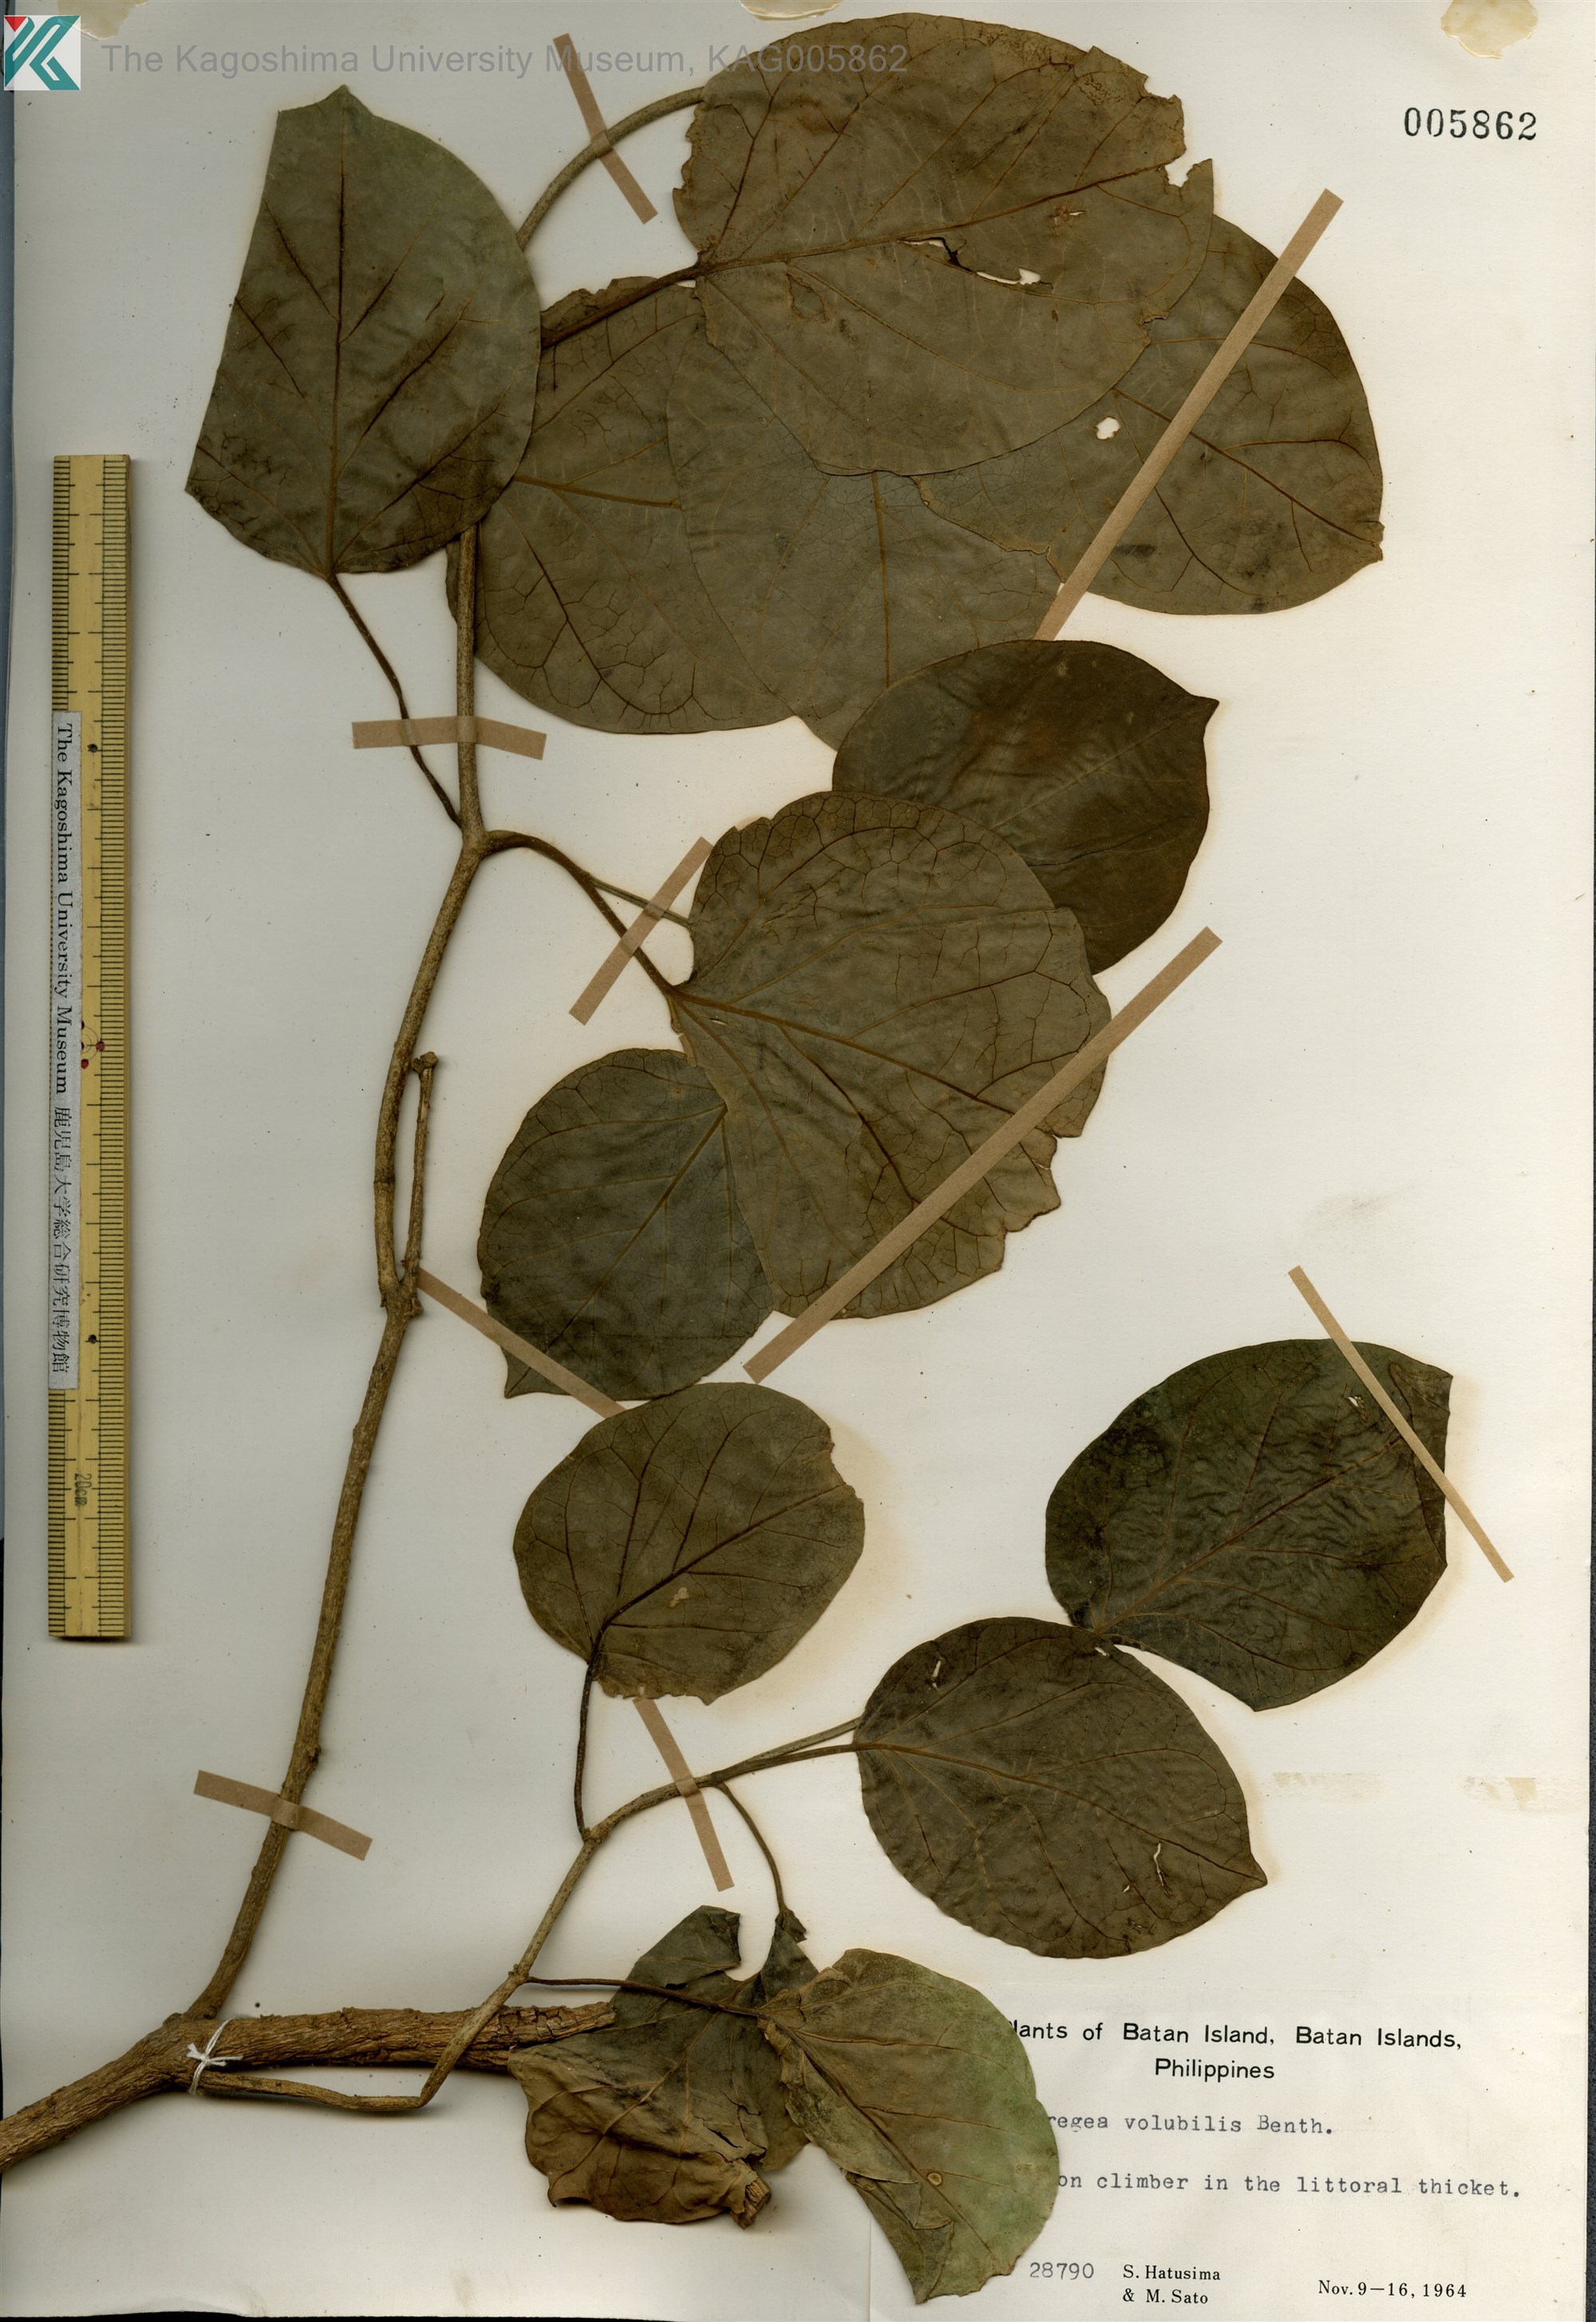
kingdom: Plantae
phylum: Tracheophyta
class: Magnoliopsida
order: Gentianales
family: Apocynaceae
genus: Stephanotis
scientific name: Stephanotis volubilis
